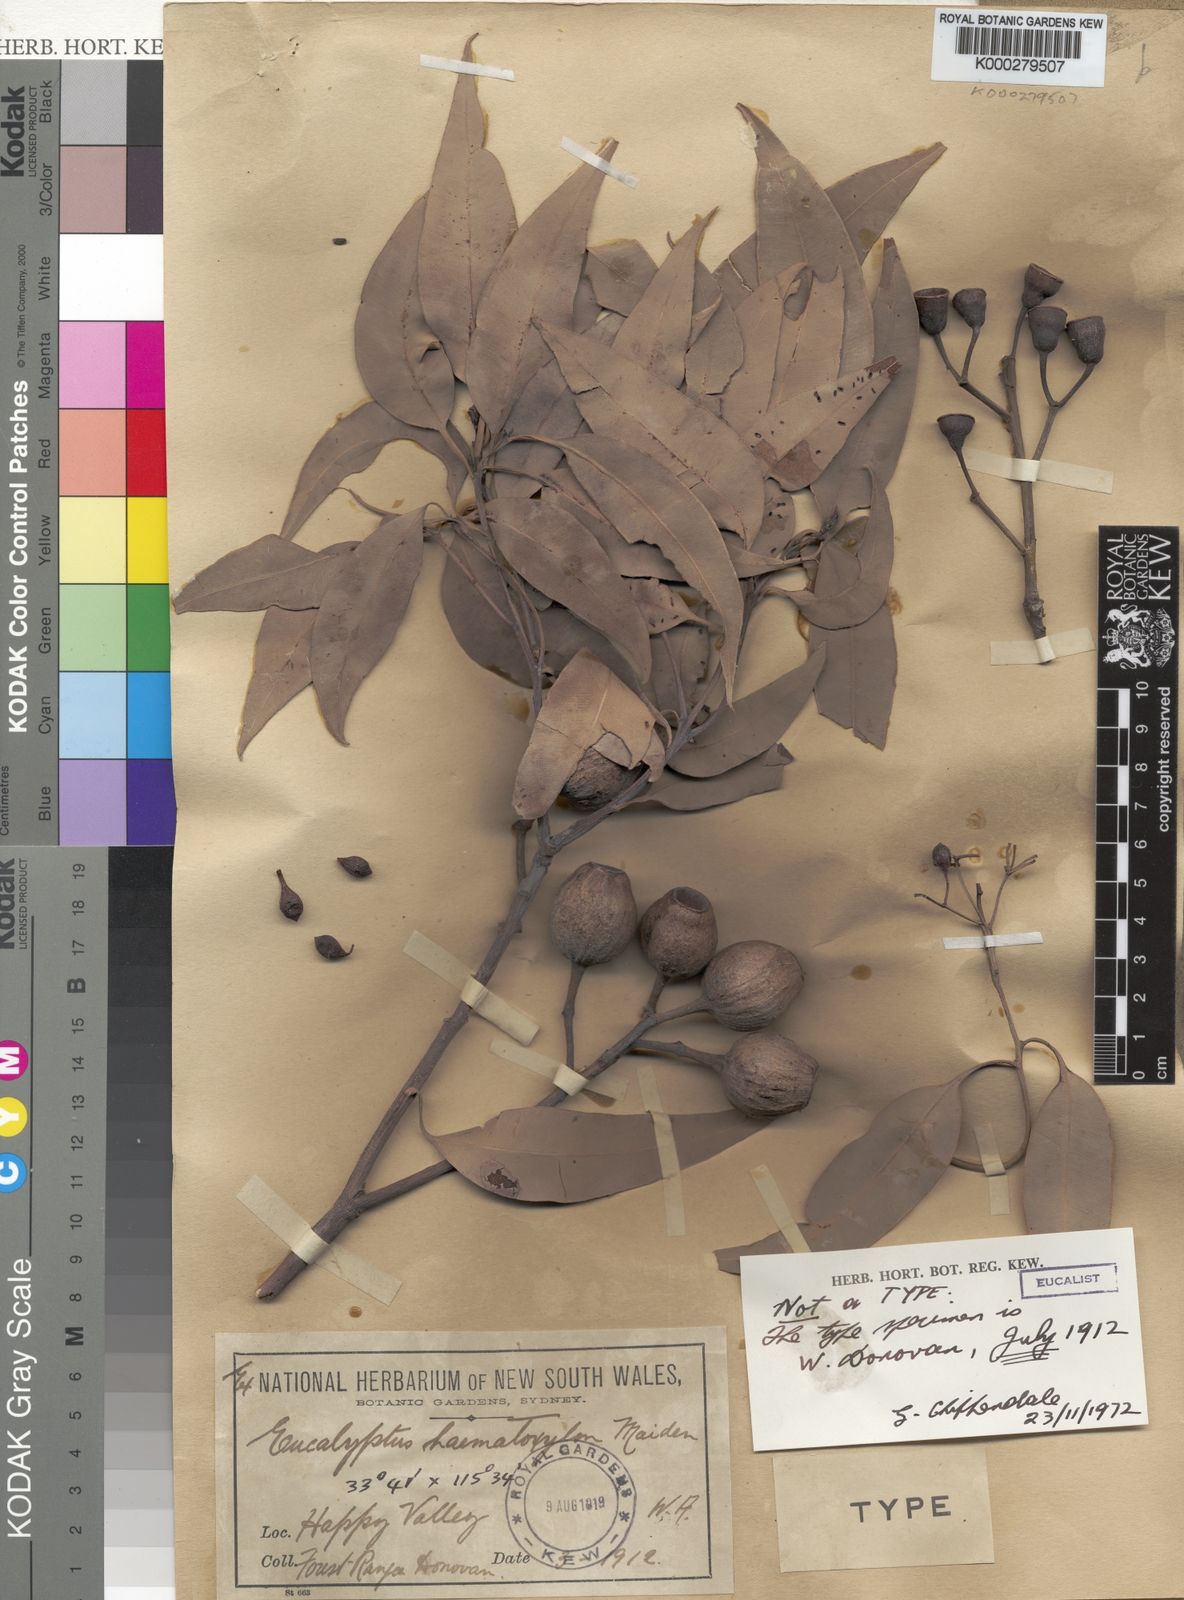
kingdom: Plantae
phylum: Tracheophyta
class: Magnoliopsida
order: Myrtales
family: Myrtaceae
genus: Corymbia
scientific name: Corymbia haematoxylon
